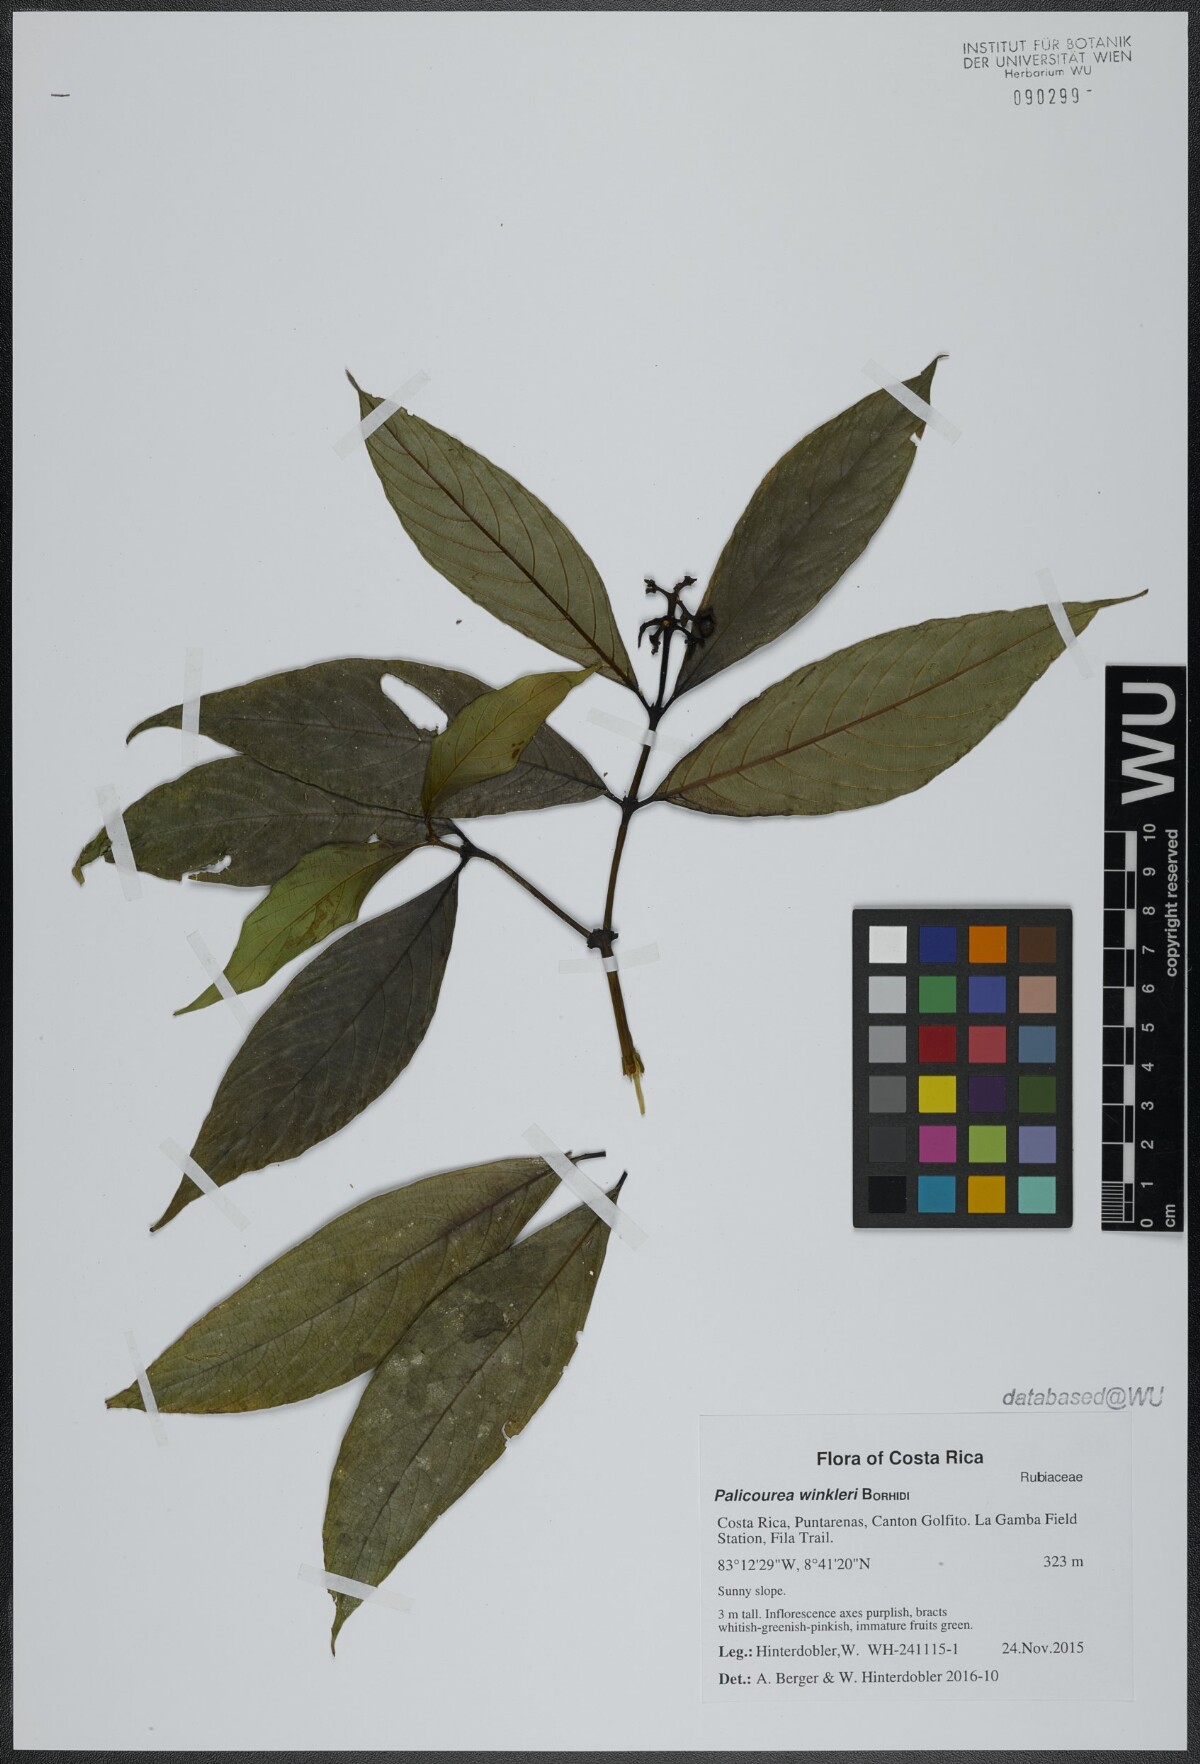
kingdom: Plantae
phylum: Tracheophyta
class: Magnoliopsida
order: Gentianales
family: Rubiaceae
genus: Palicourea
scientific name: Palicourea winkleri
